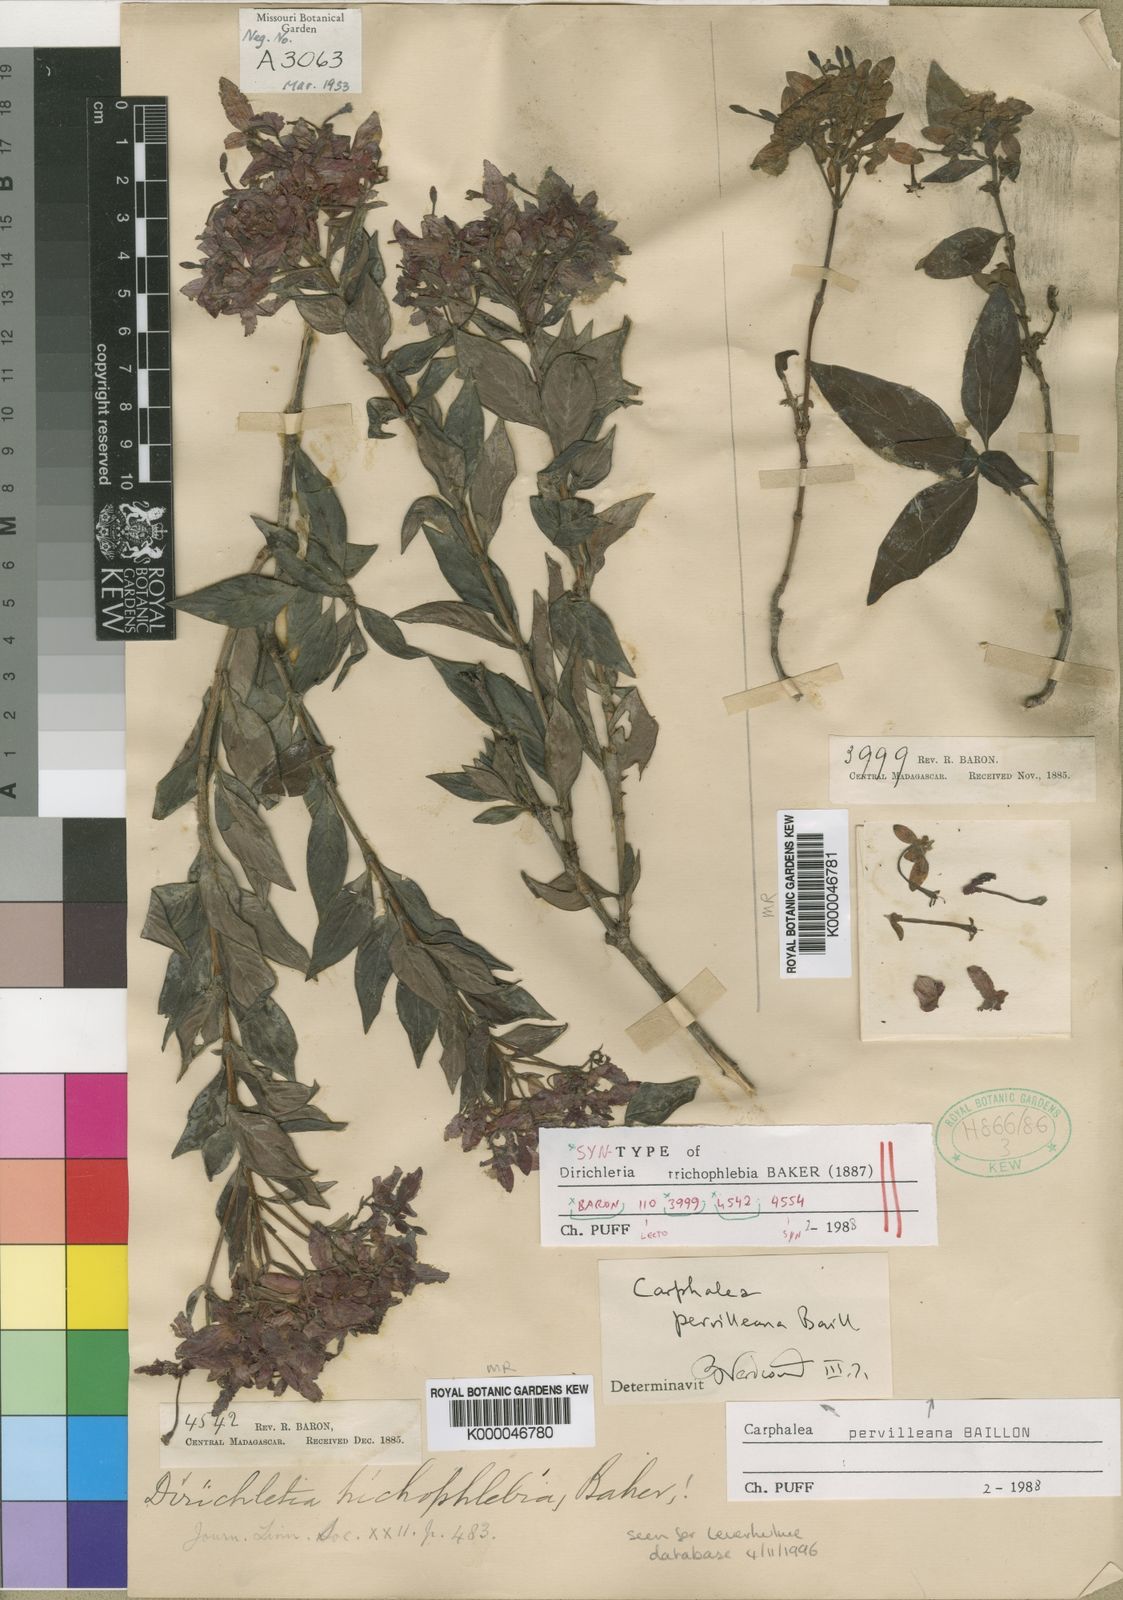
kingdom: Plantae
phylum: Tracheophyta
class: Magnoliopsida
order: Gentianales
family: Rubiaceae
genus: Paracarphalea
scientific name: Paracarphalea pervilleana
